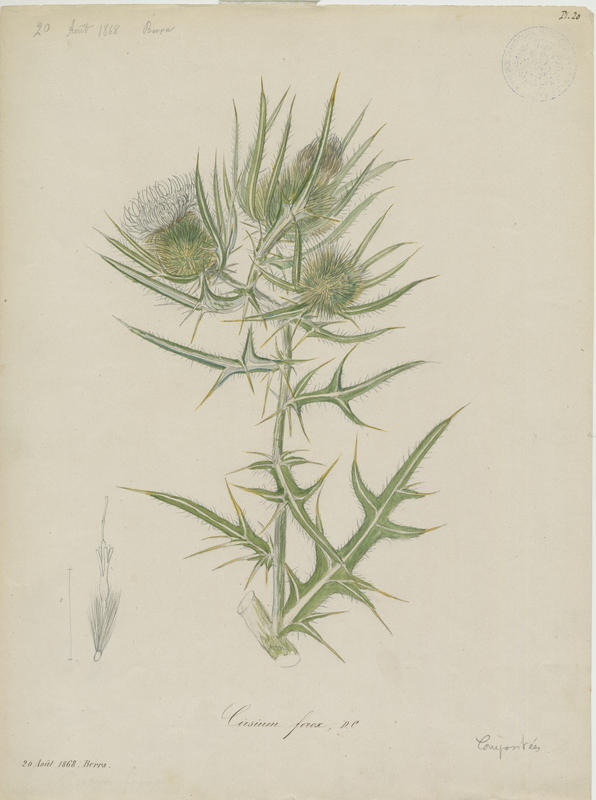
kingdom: Plantae
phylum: Tracheophyta
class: Magnoliopsida
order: Asterales
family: Asteraceae
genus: Lophiolepis
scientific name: Lophiolepis ferox
